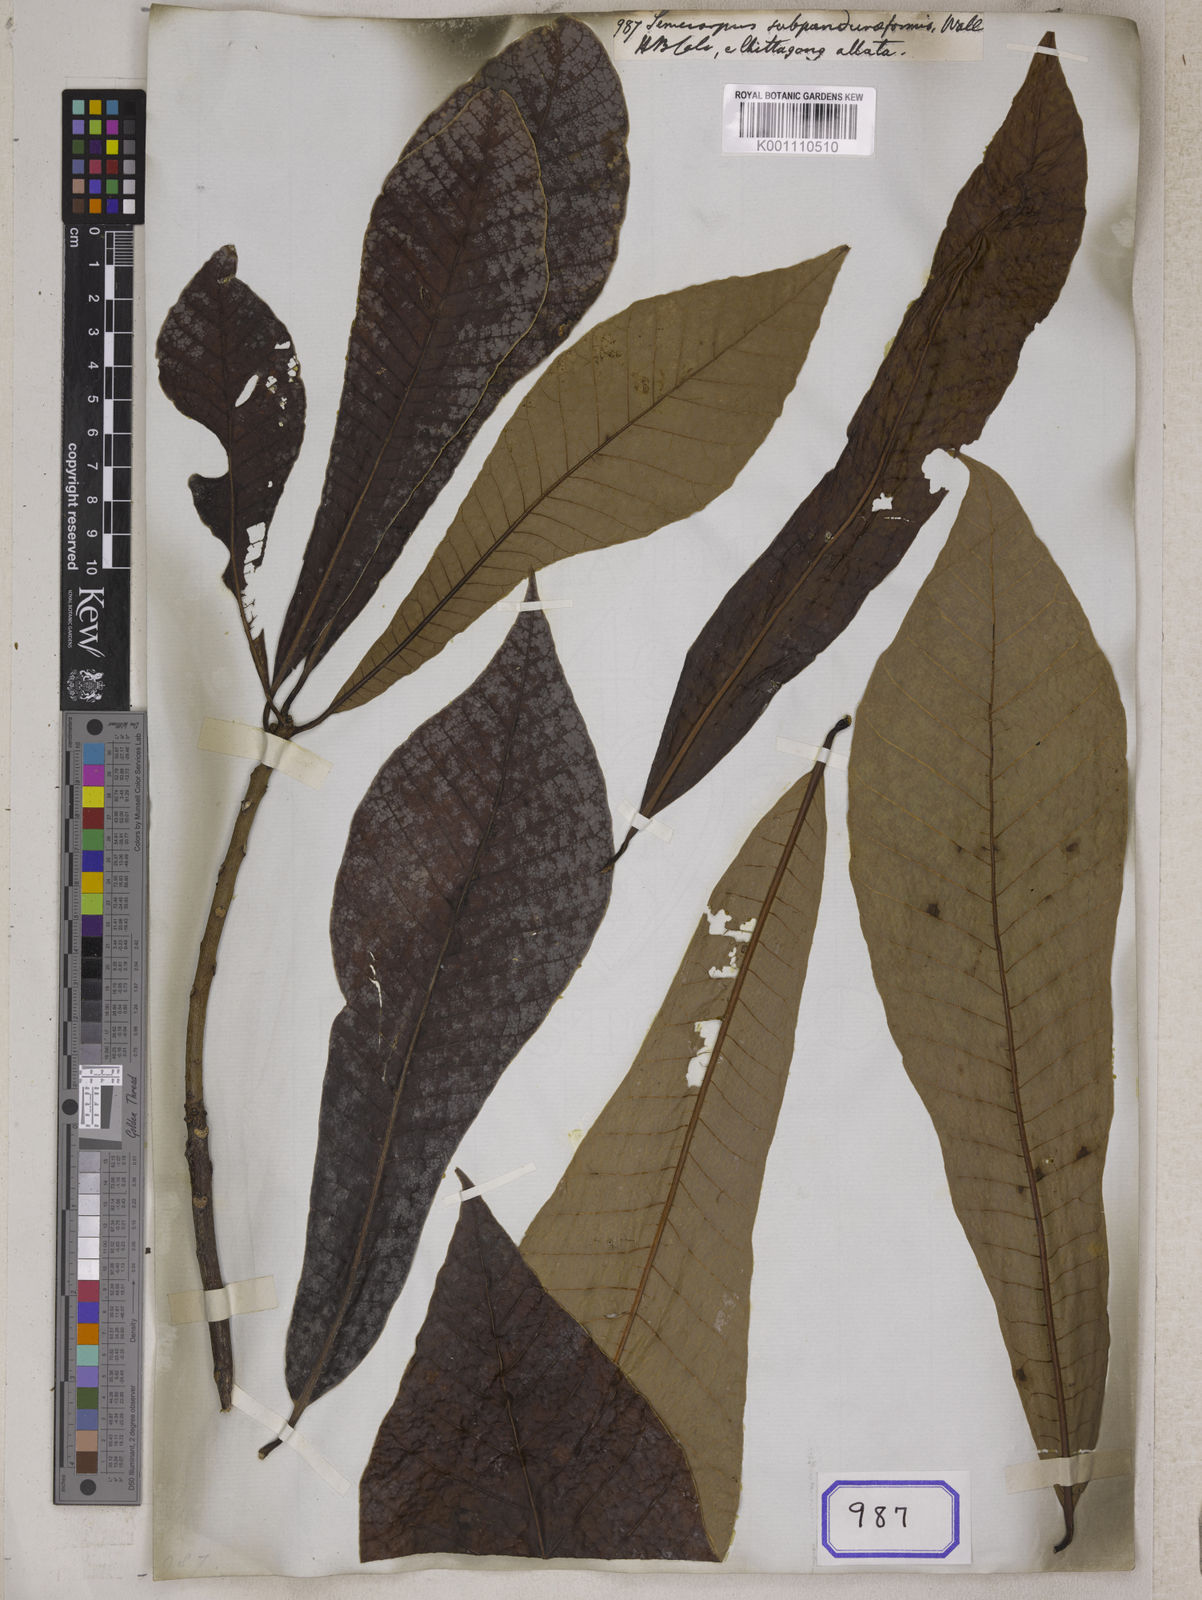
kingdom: Plantae
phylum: Tracheophyta
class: Magnoliopsida
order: Sapindales
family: Anacardiaceae
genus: Semecarpus
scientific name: Semecarpus
